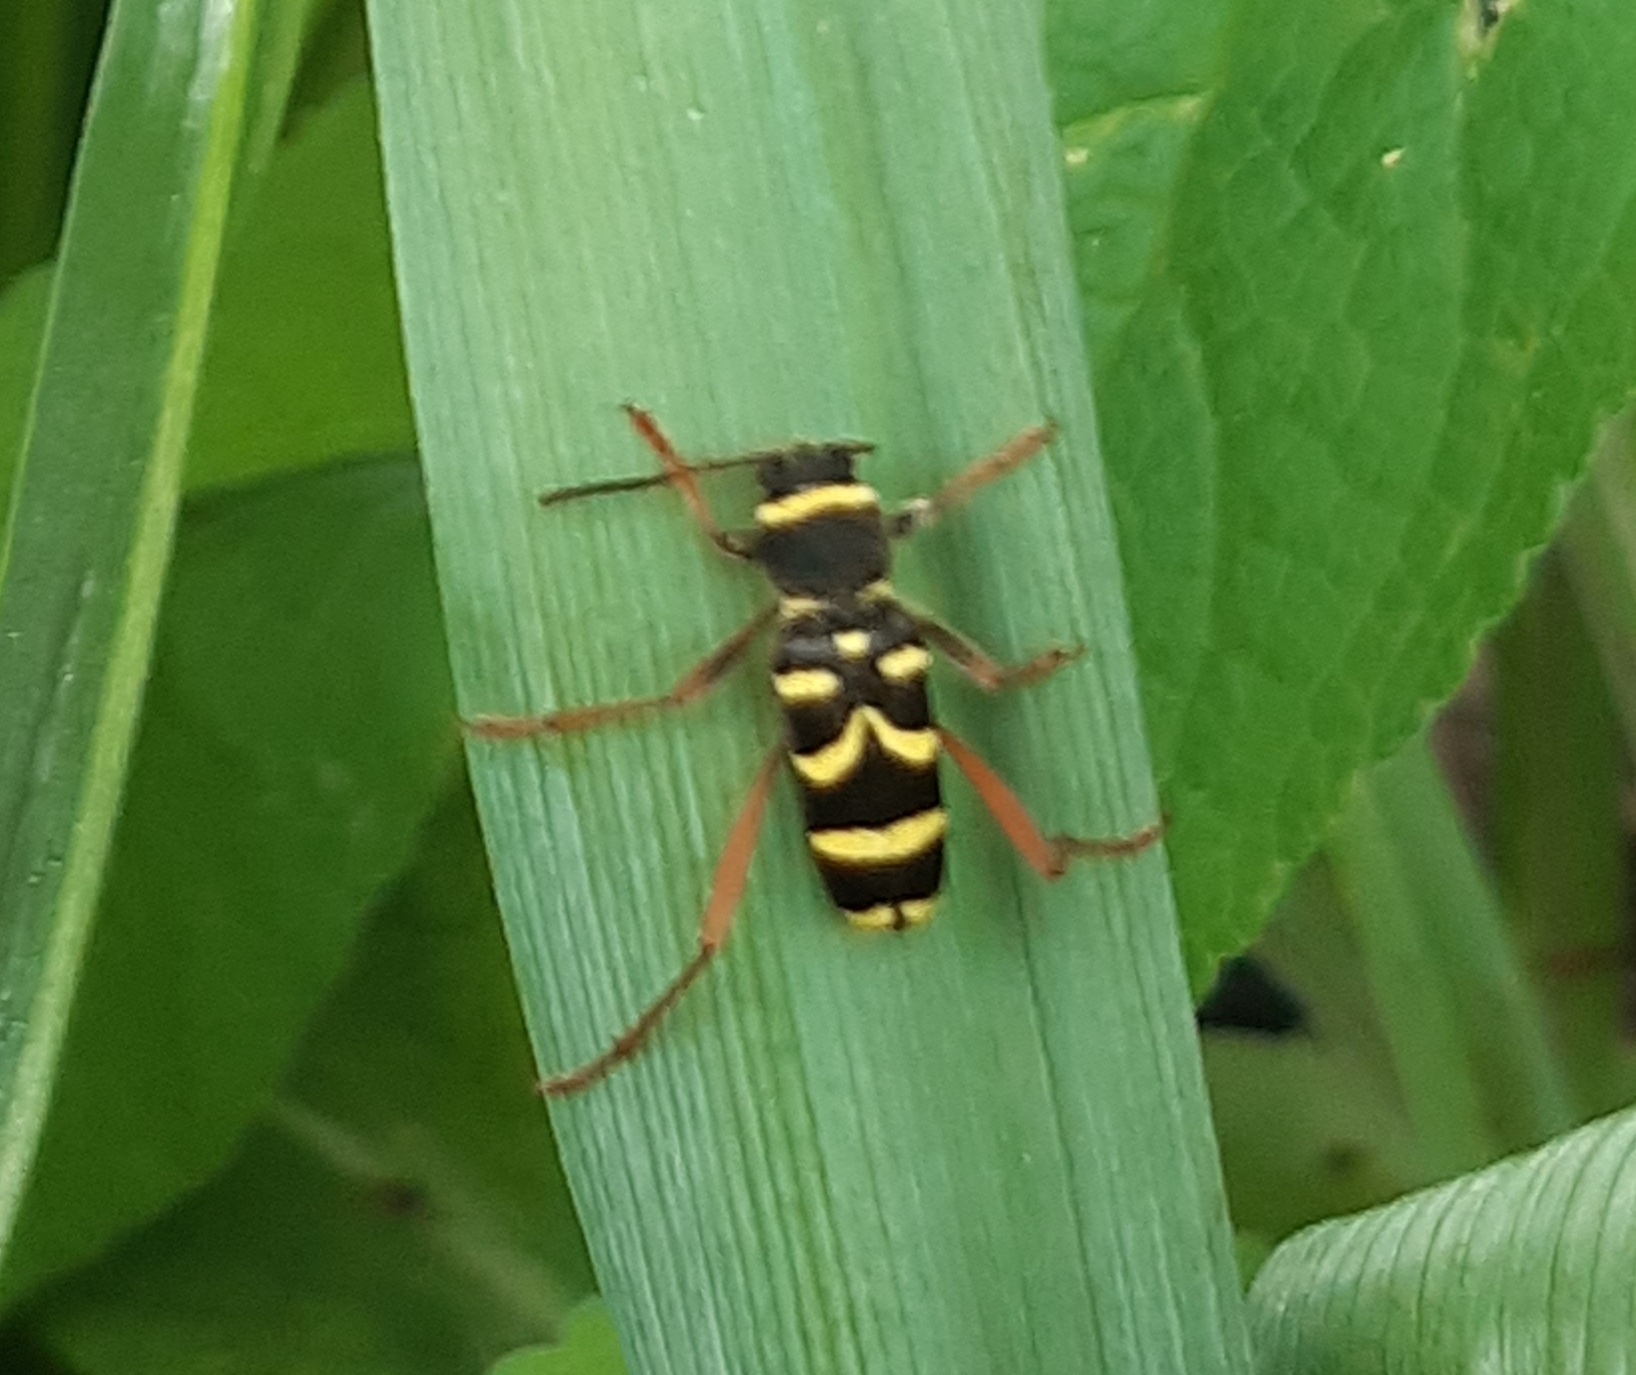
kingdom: Animalia
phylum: Arthropoda
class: Insecta
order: Coleoptera
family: Cerambycidae
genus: Clytus
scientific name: Clytus arietis
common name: Lille hvepsebuk
